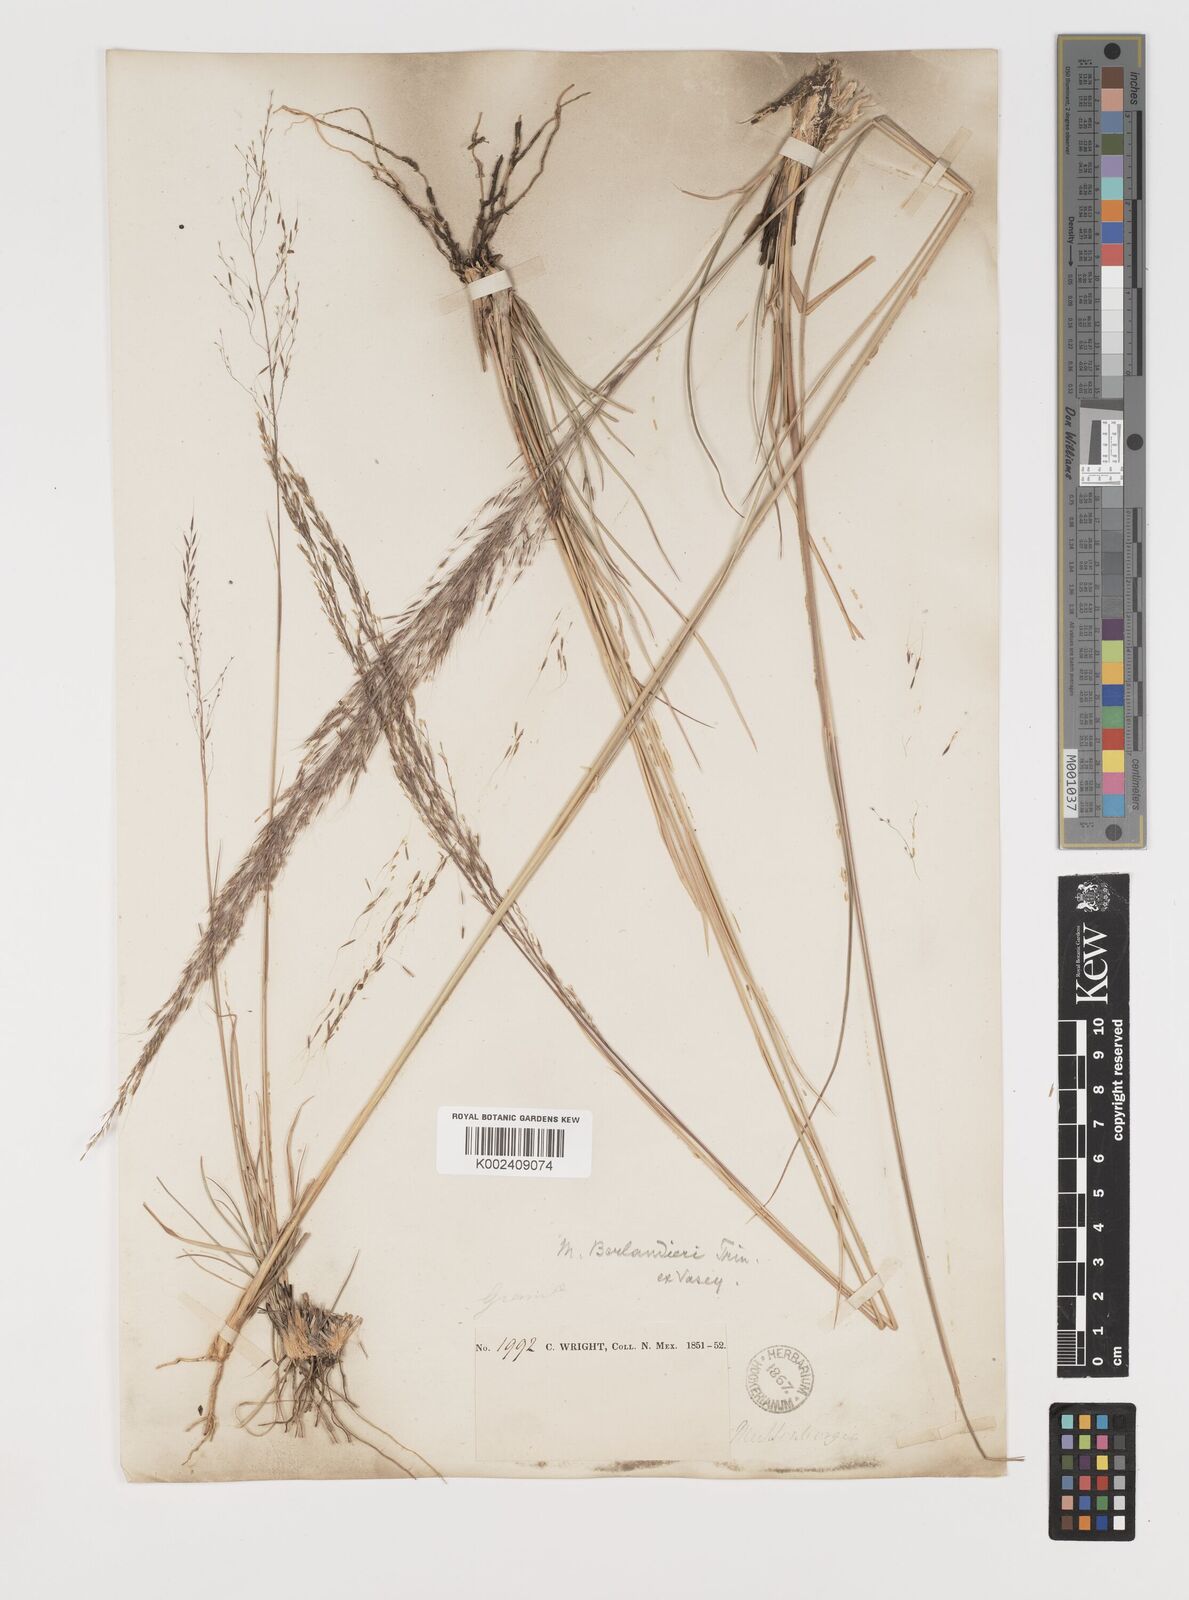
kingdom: Plantae
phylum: Tracheophyta
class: Liliopsida
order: Poales
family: Poaceae
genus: Muhlenbergia
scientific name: Muhlenbergia rigida
